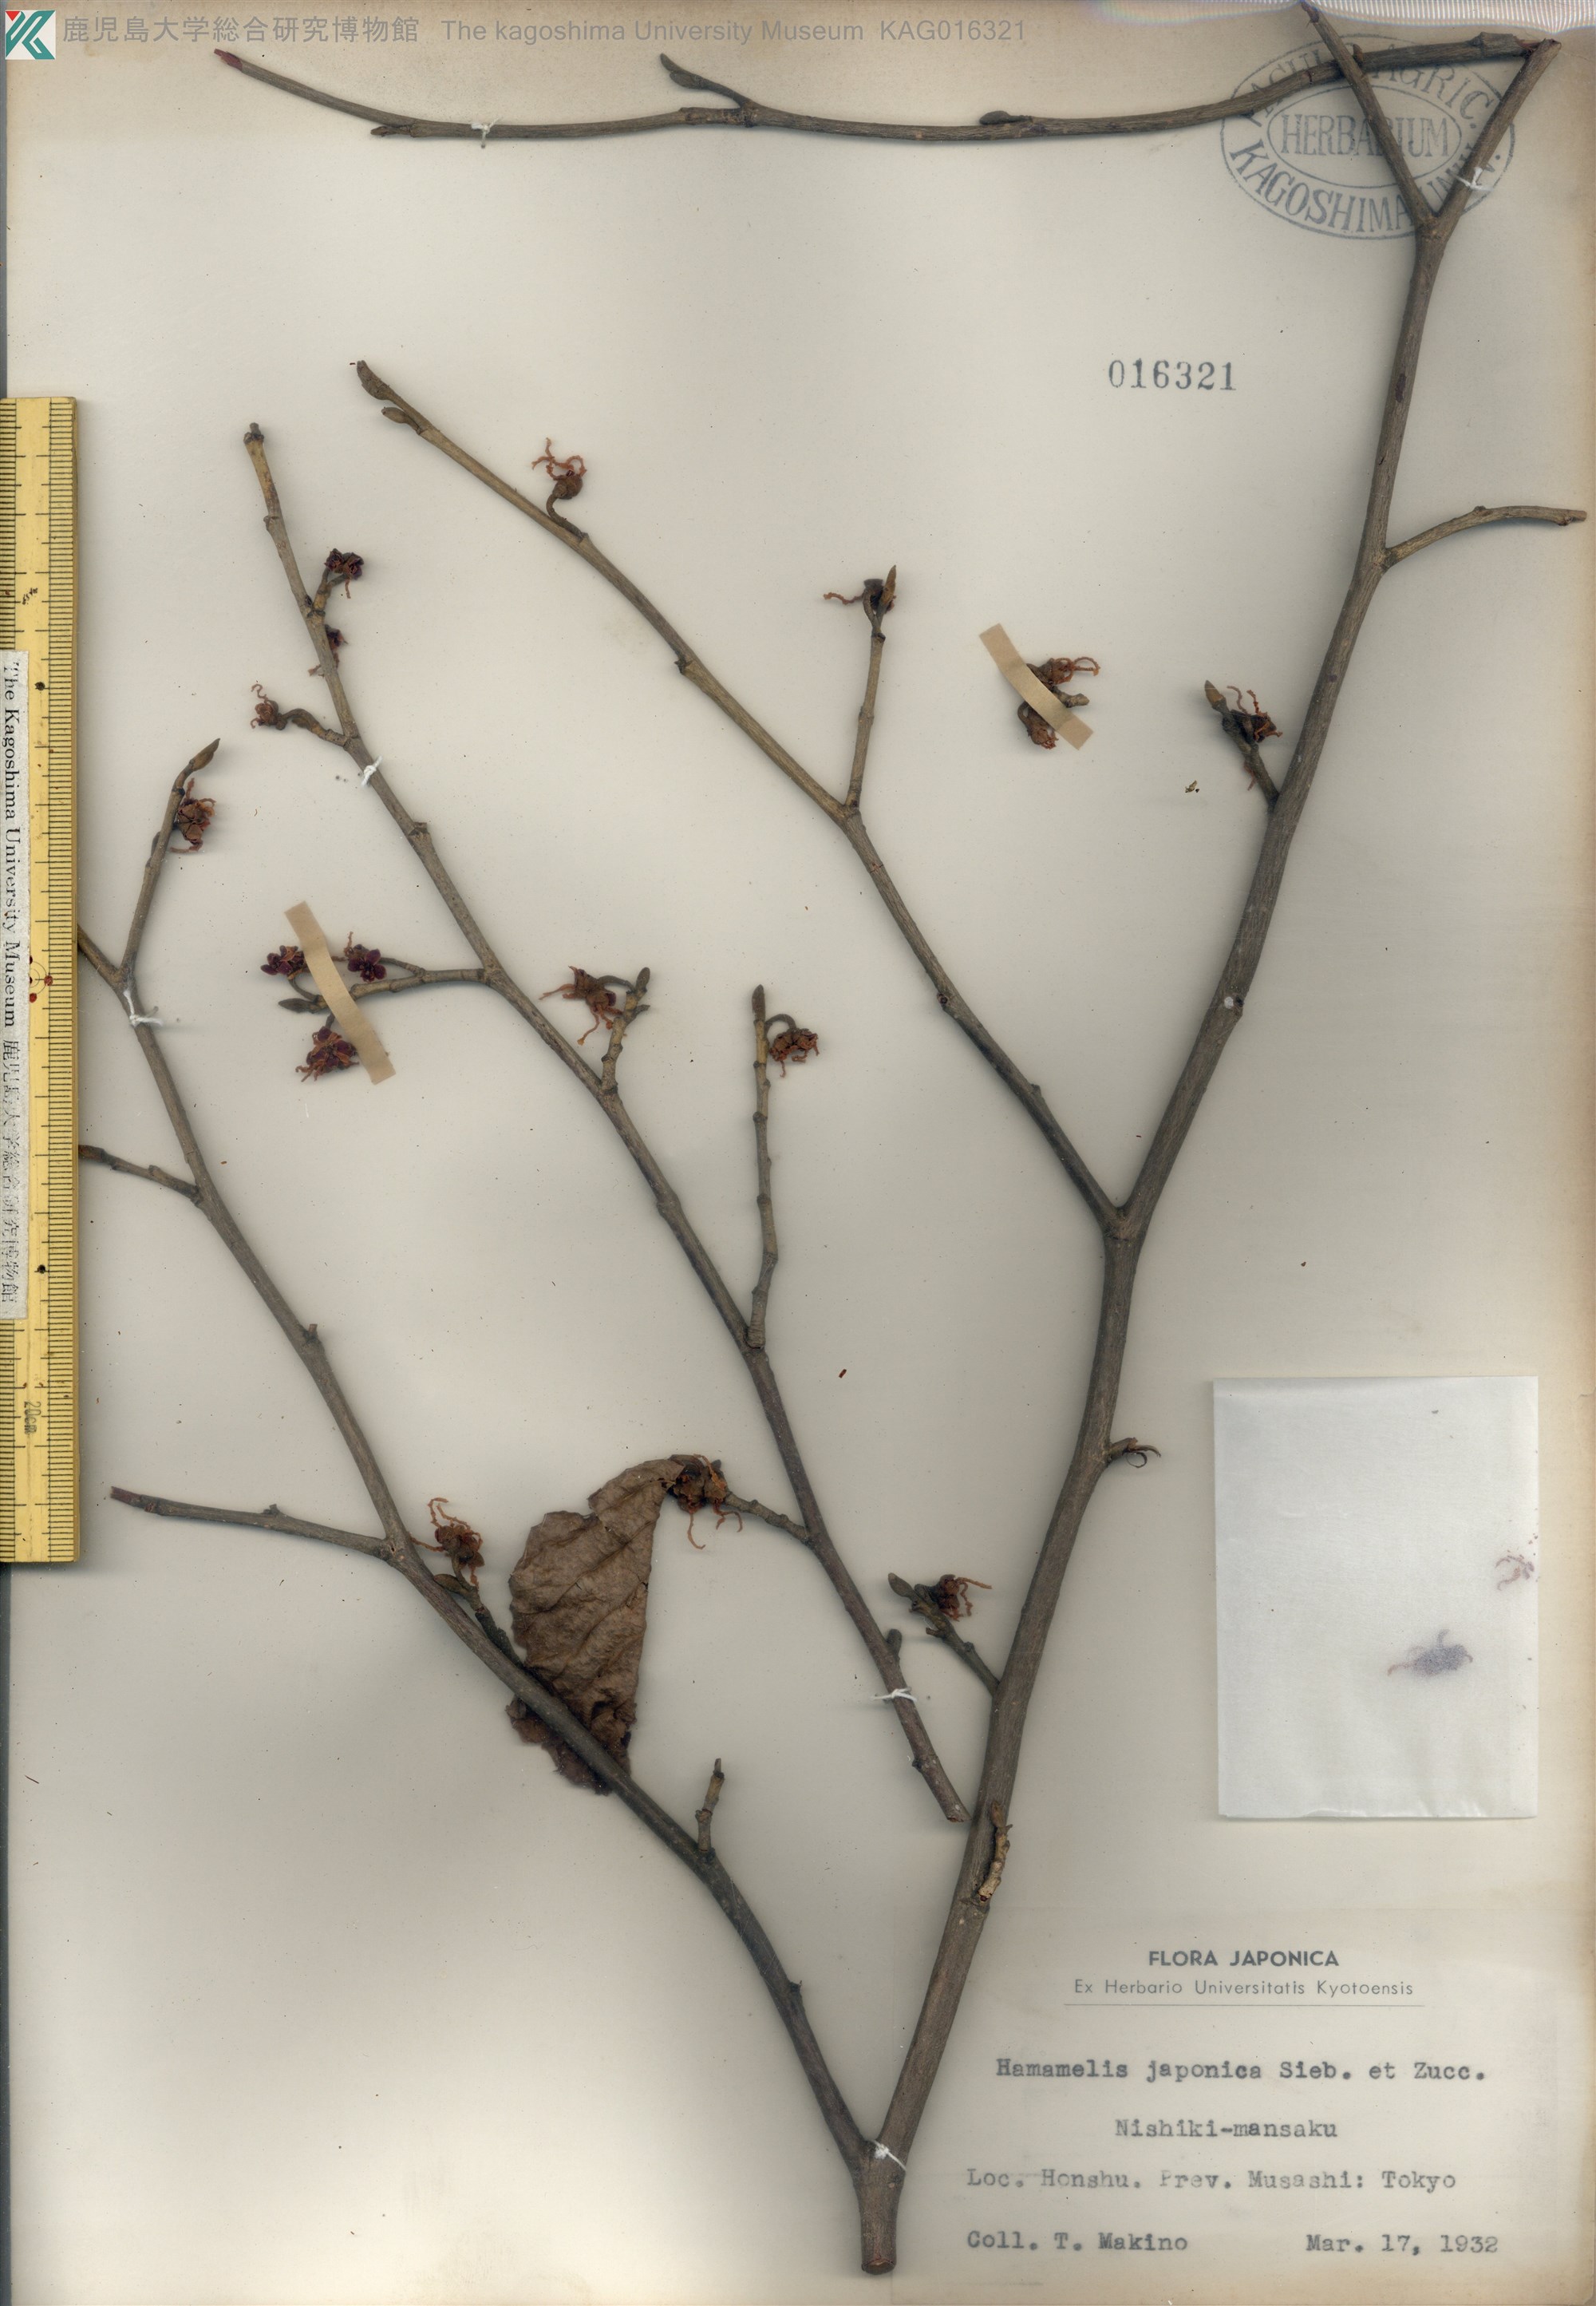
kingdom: Plantae
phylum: Tracheophyta
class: Magnoliopsida
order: Saxifragales
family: Hamamelidaceae
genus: Hamamelis
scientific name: Hamamelis japonica
